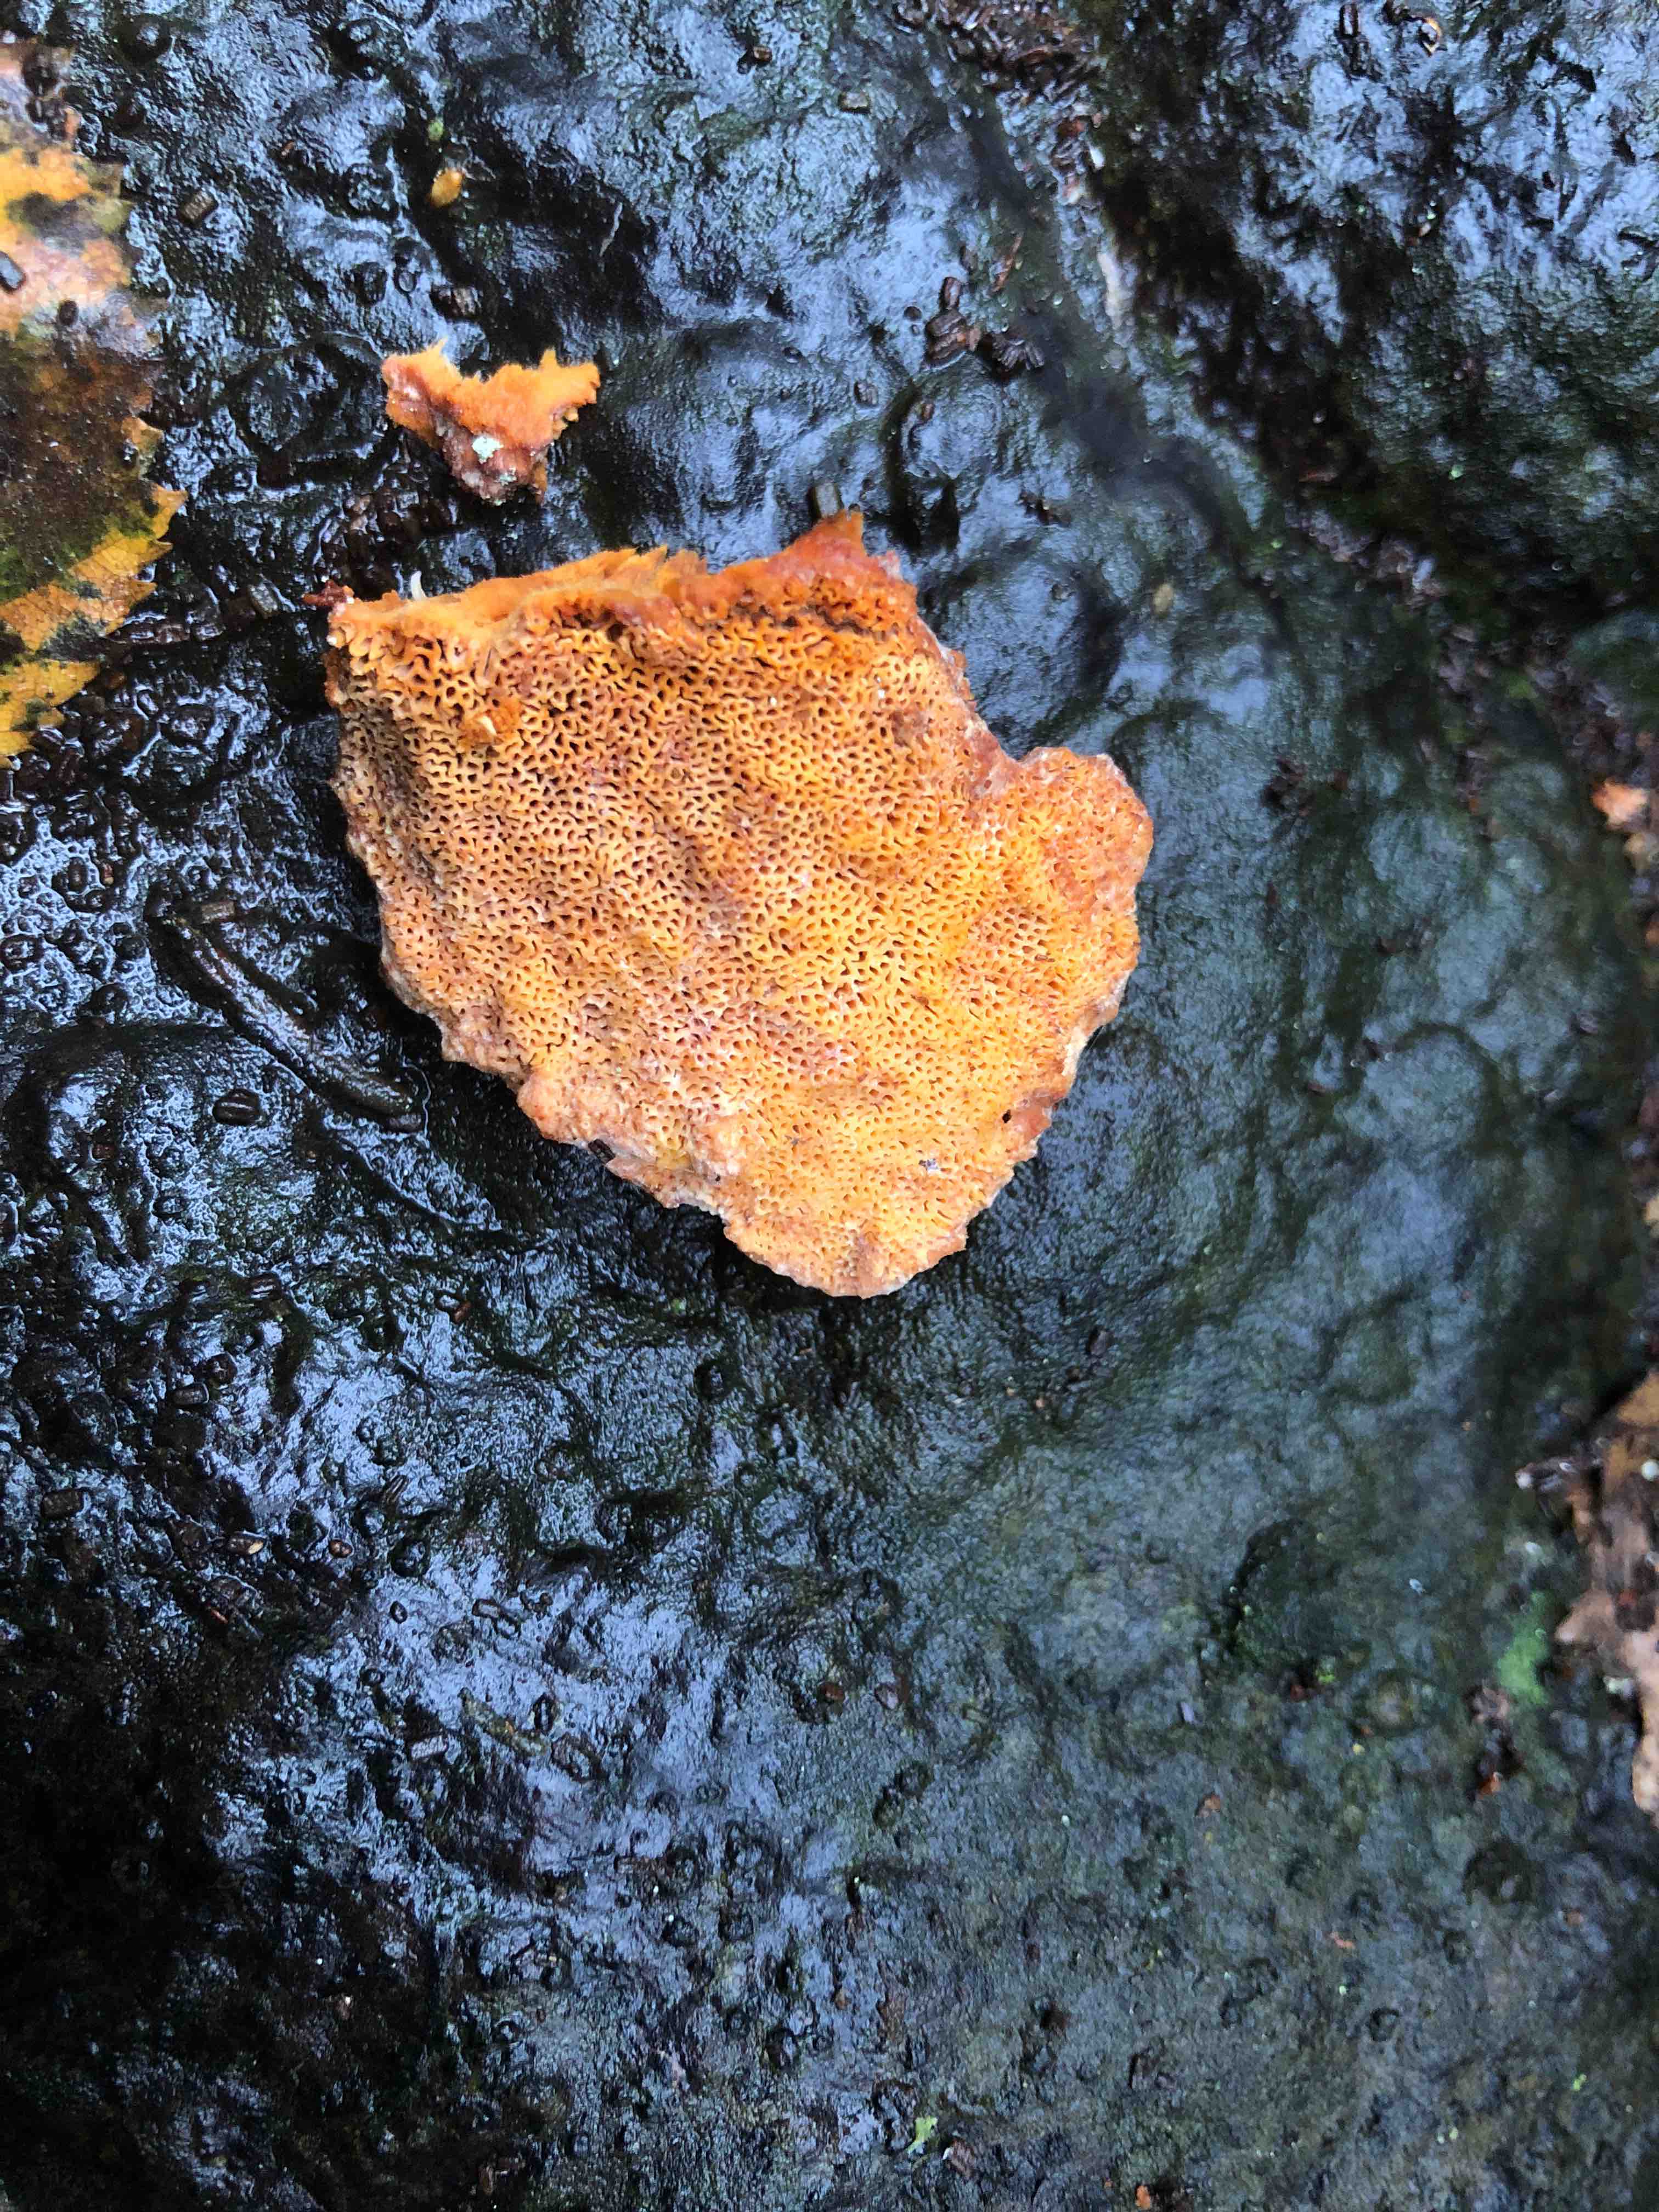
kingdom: Fungi
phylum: Basidiomycota
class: Agaricomycetes
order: Polyporales
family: Pycnoporellaceae
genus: Pycnoporellus
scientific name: Pycnoporellus fulgens
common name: flammeporesvamp
